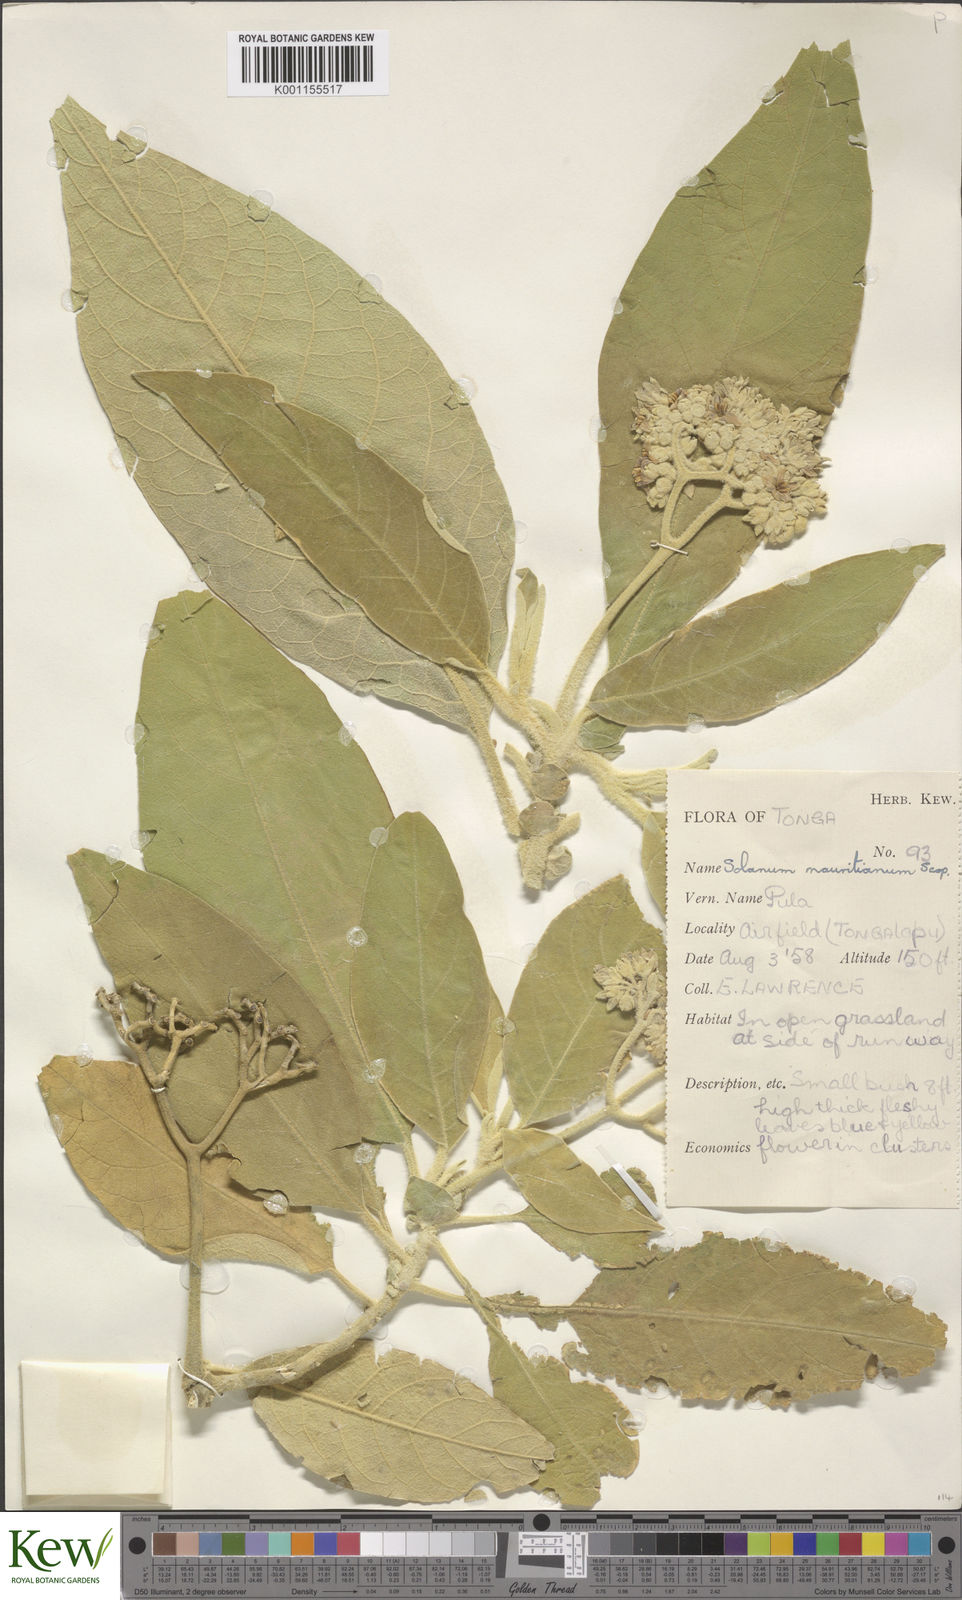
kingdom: Plantae
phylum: Tracheophyta
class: Magnoliopsida
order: Solanales
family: Solanaceae
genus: Solanum
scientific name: Solanum mauritianum
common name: Earleaf nightshade
